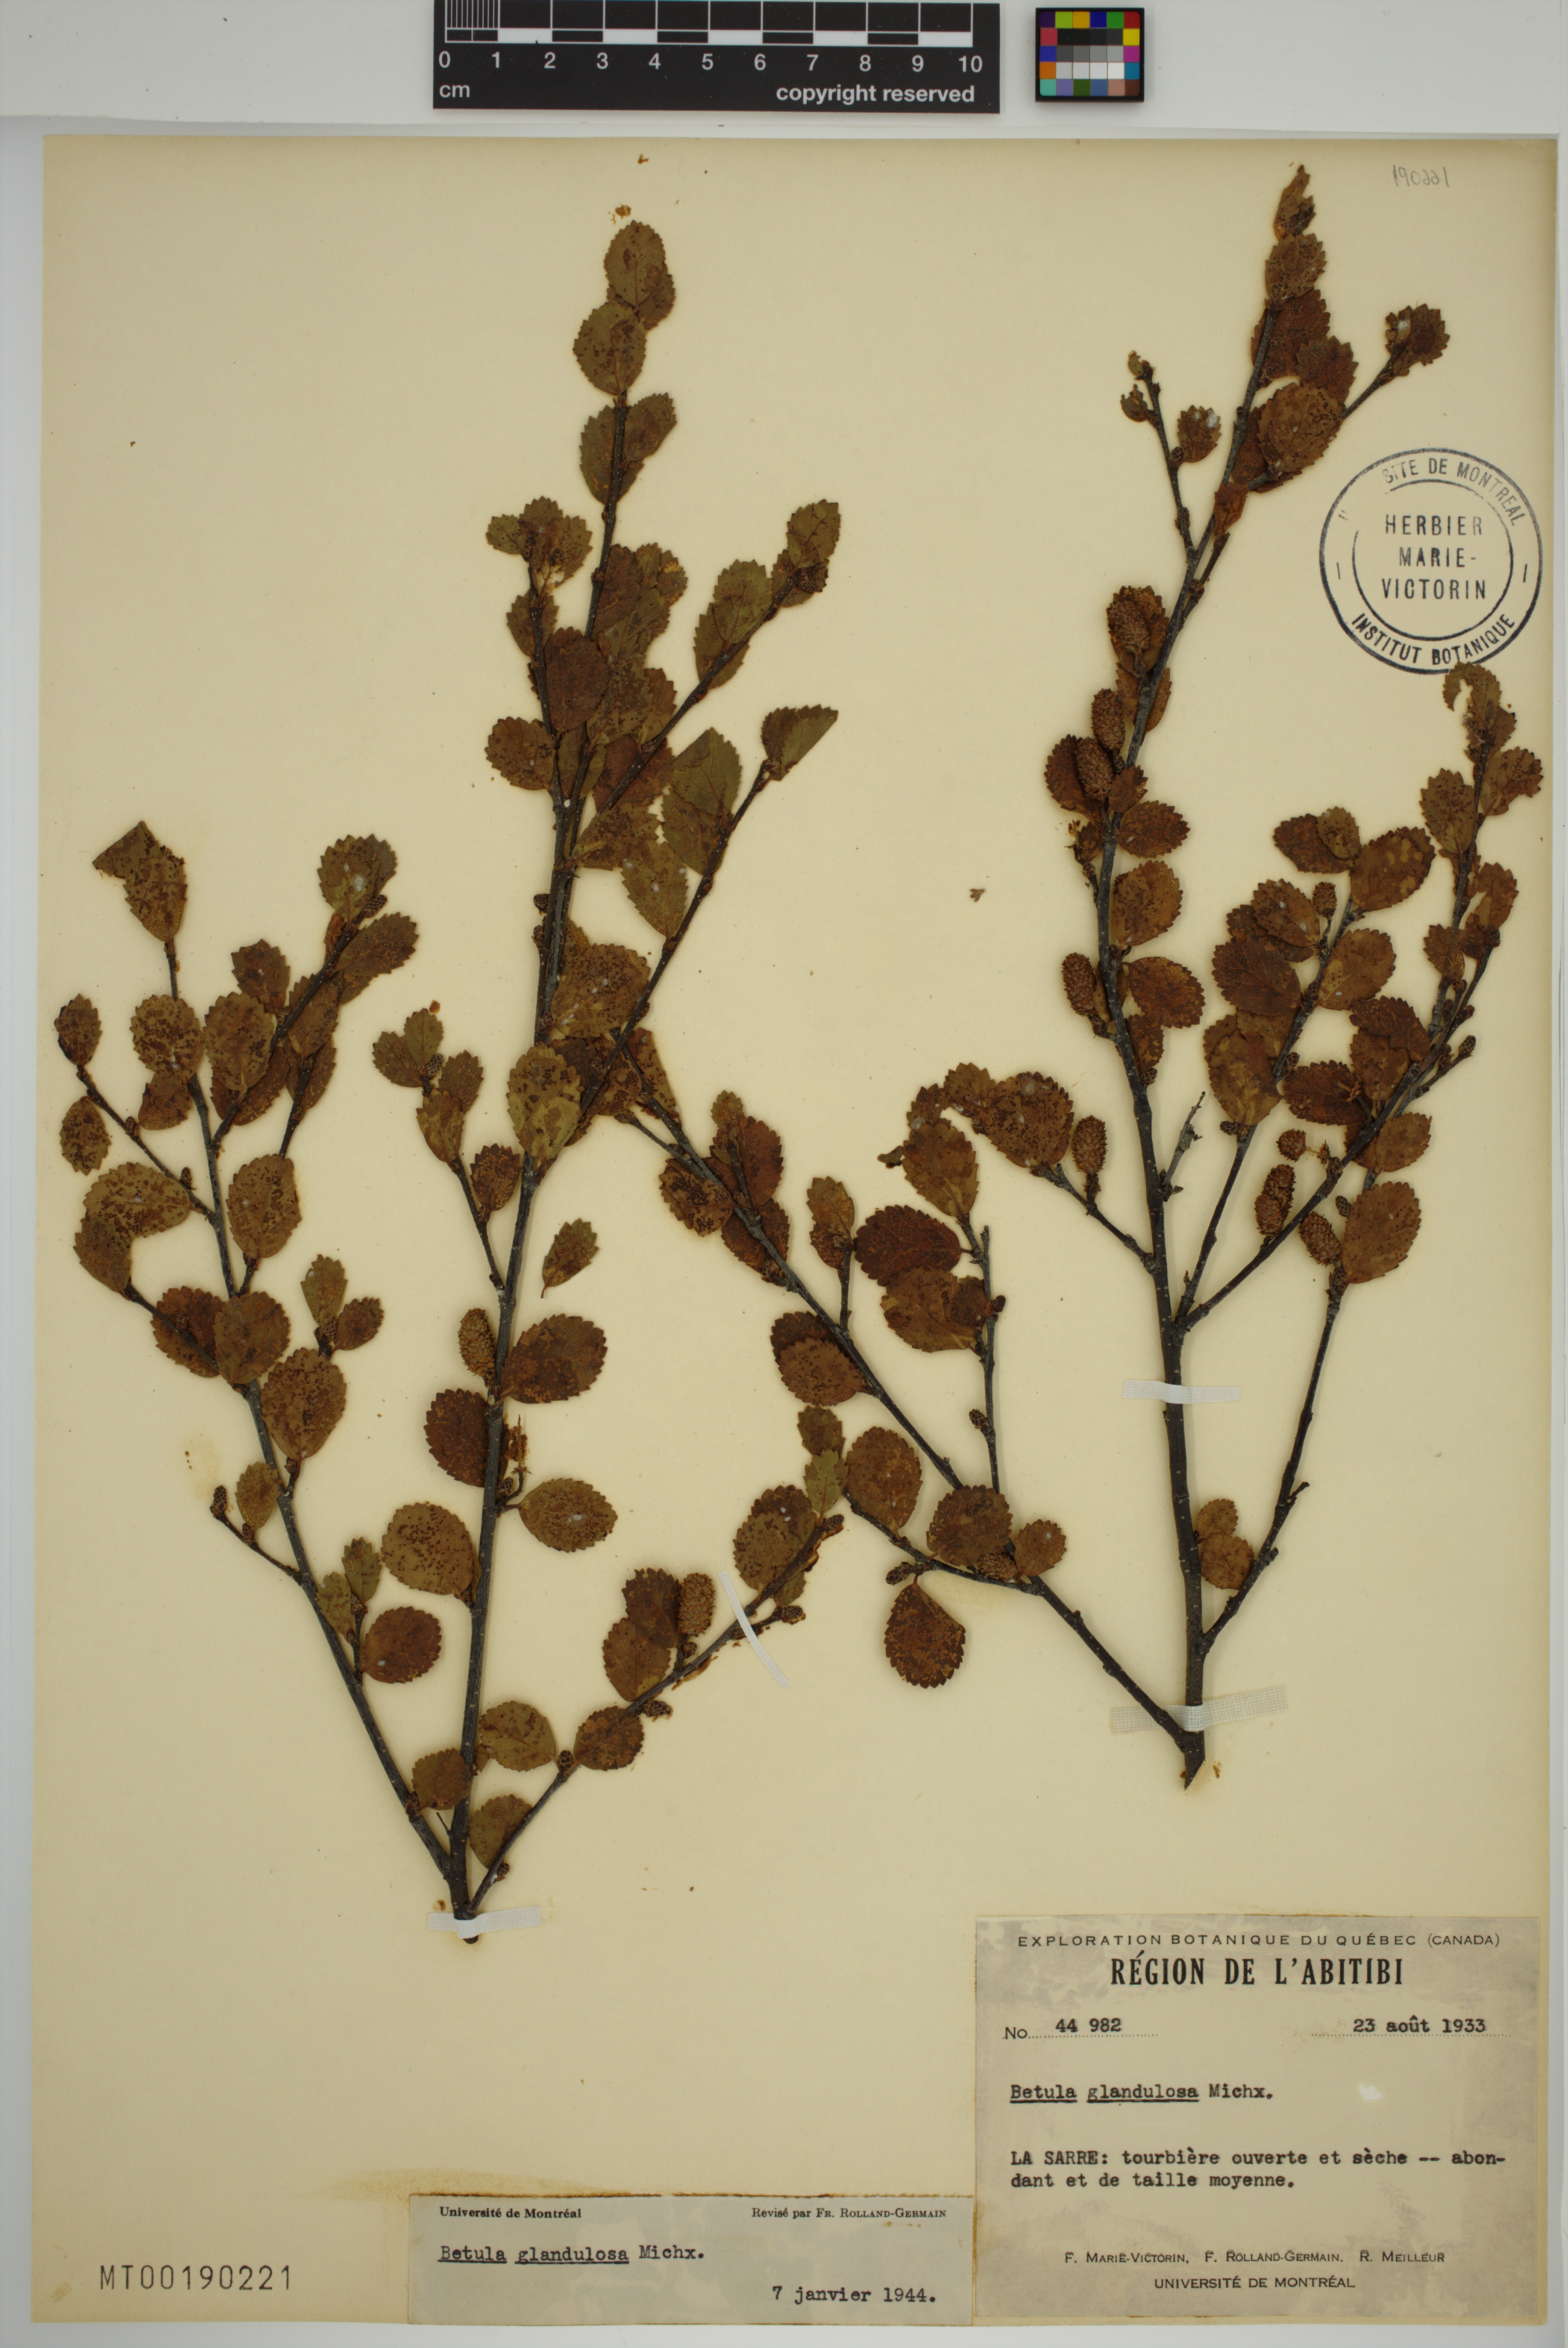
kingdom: Plantae
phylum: Tracheophyta
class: Magnoliopsida
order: Fagales
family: Betulaceae
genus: Betula
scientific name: Betula glandulosa
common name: Dwarf birch
